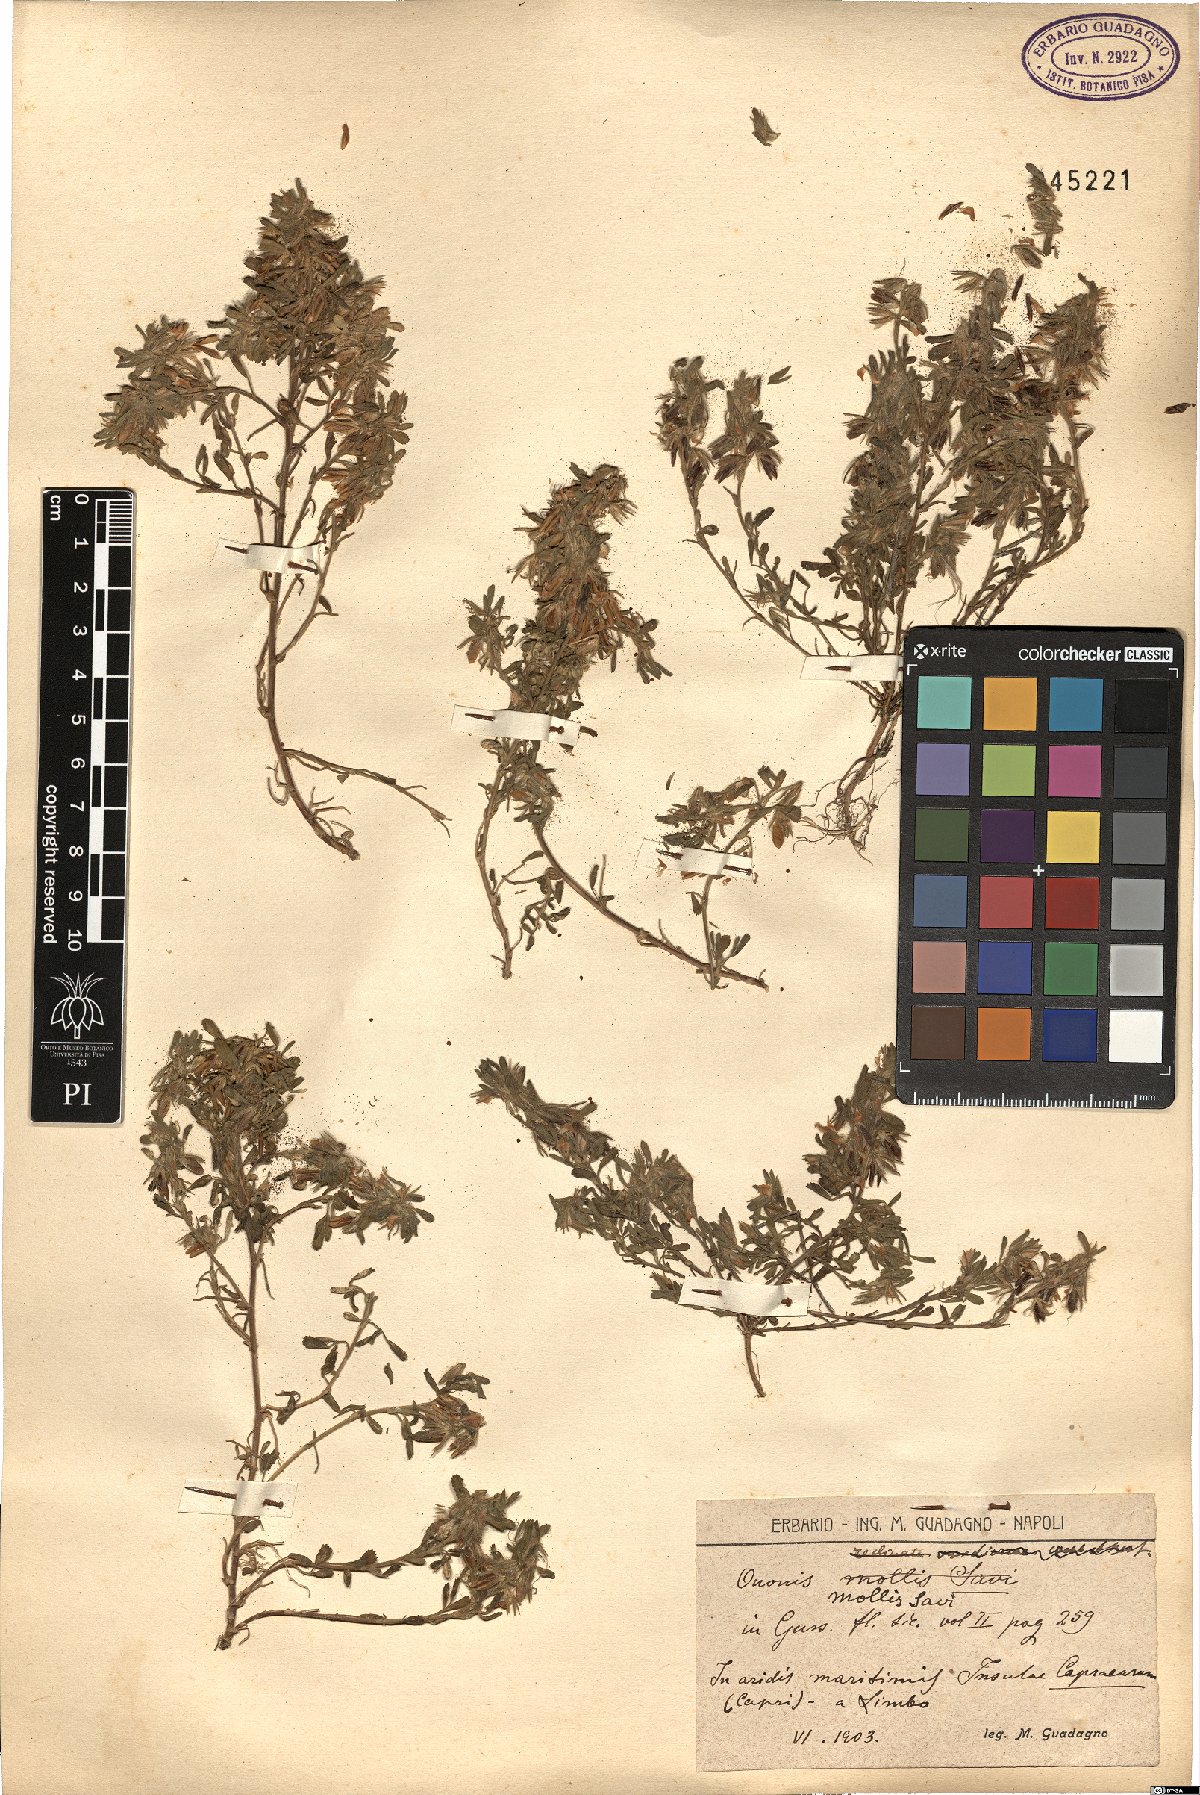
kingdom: Plantae
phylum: Tracheophyta
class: Magnoliopsida
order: Fabales
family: Fabaceae
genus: Ononis
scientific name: Ononis reclinata
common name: Small restharrow
